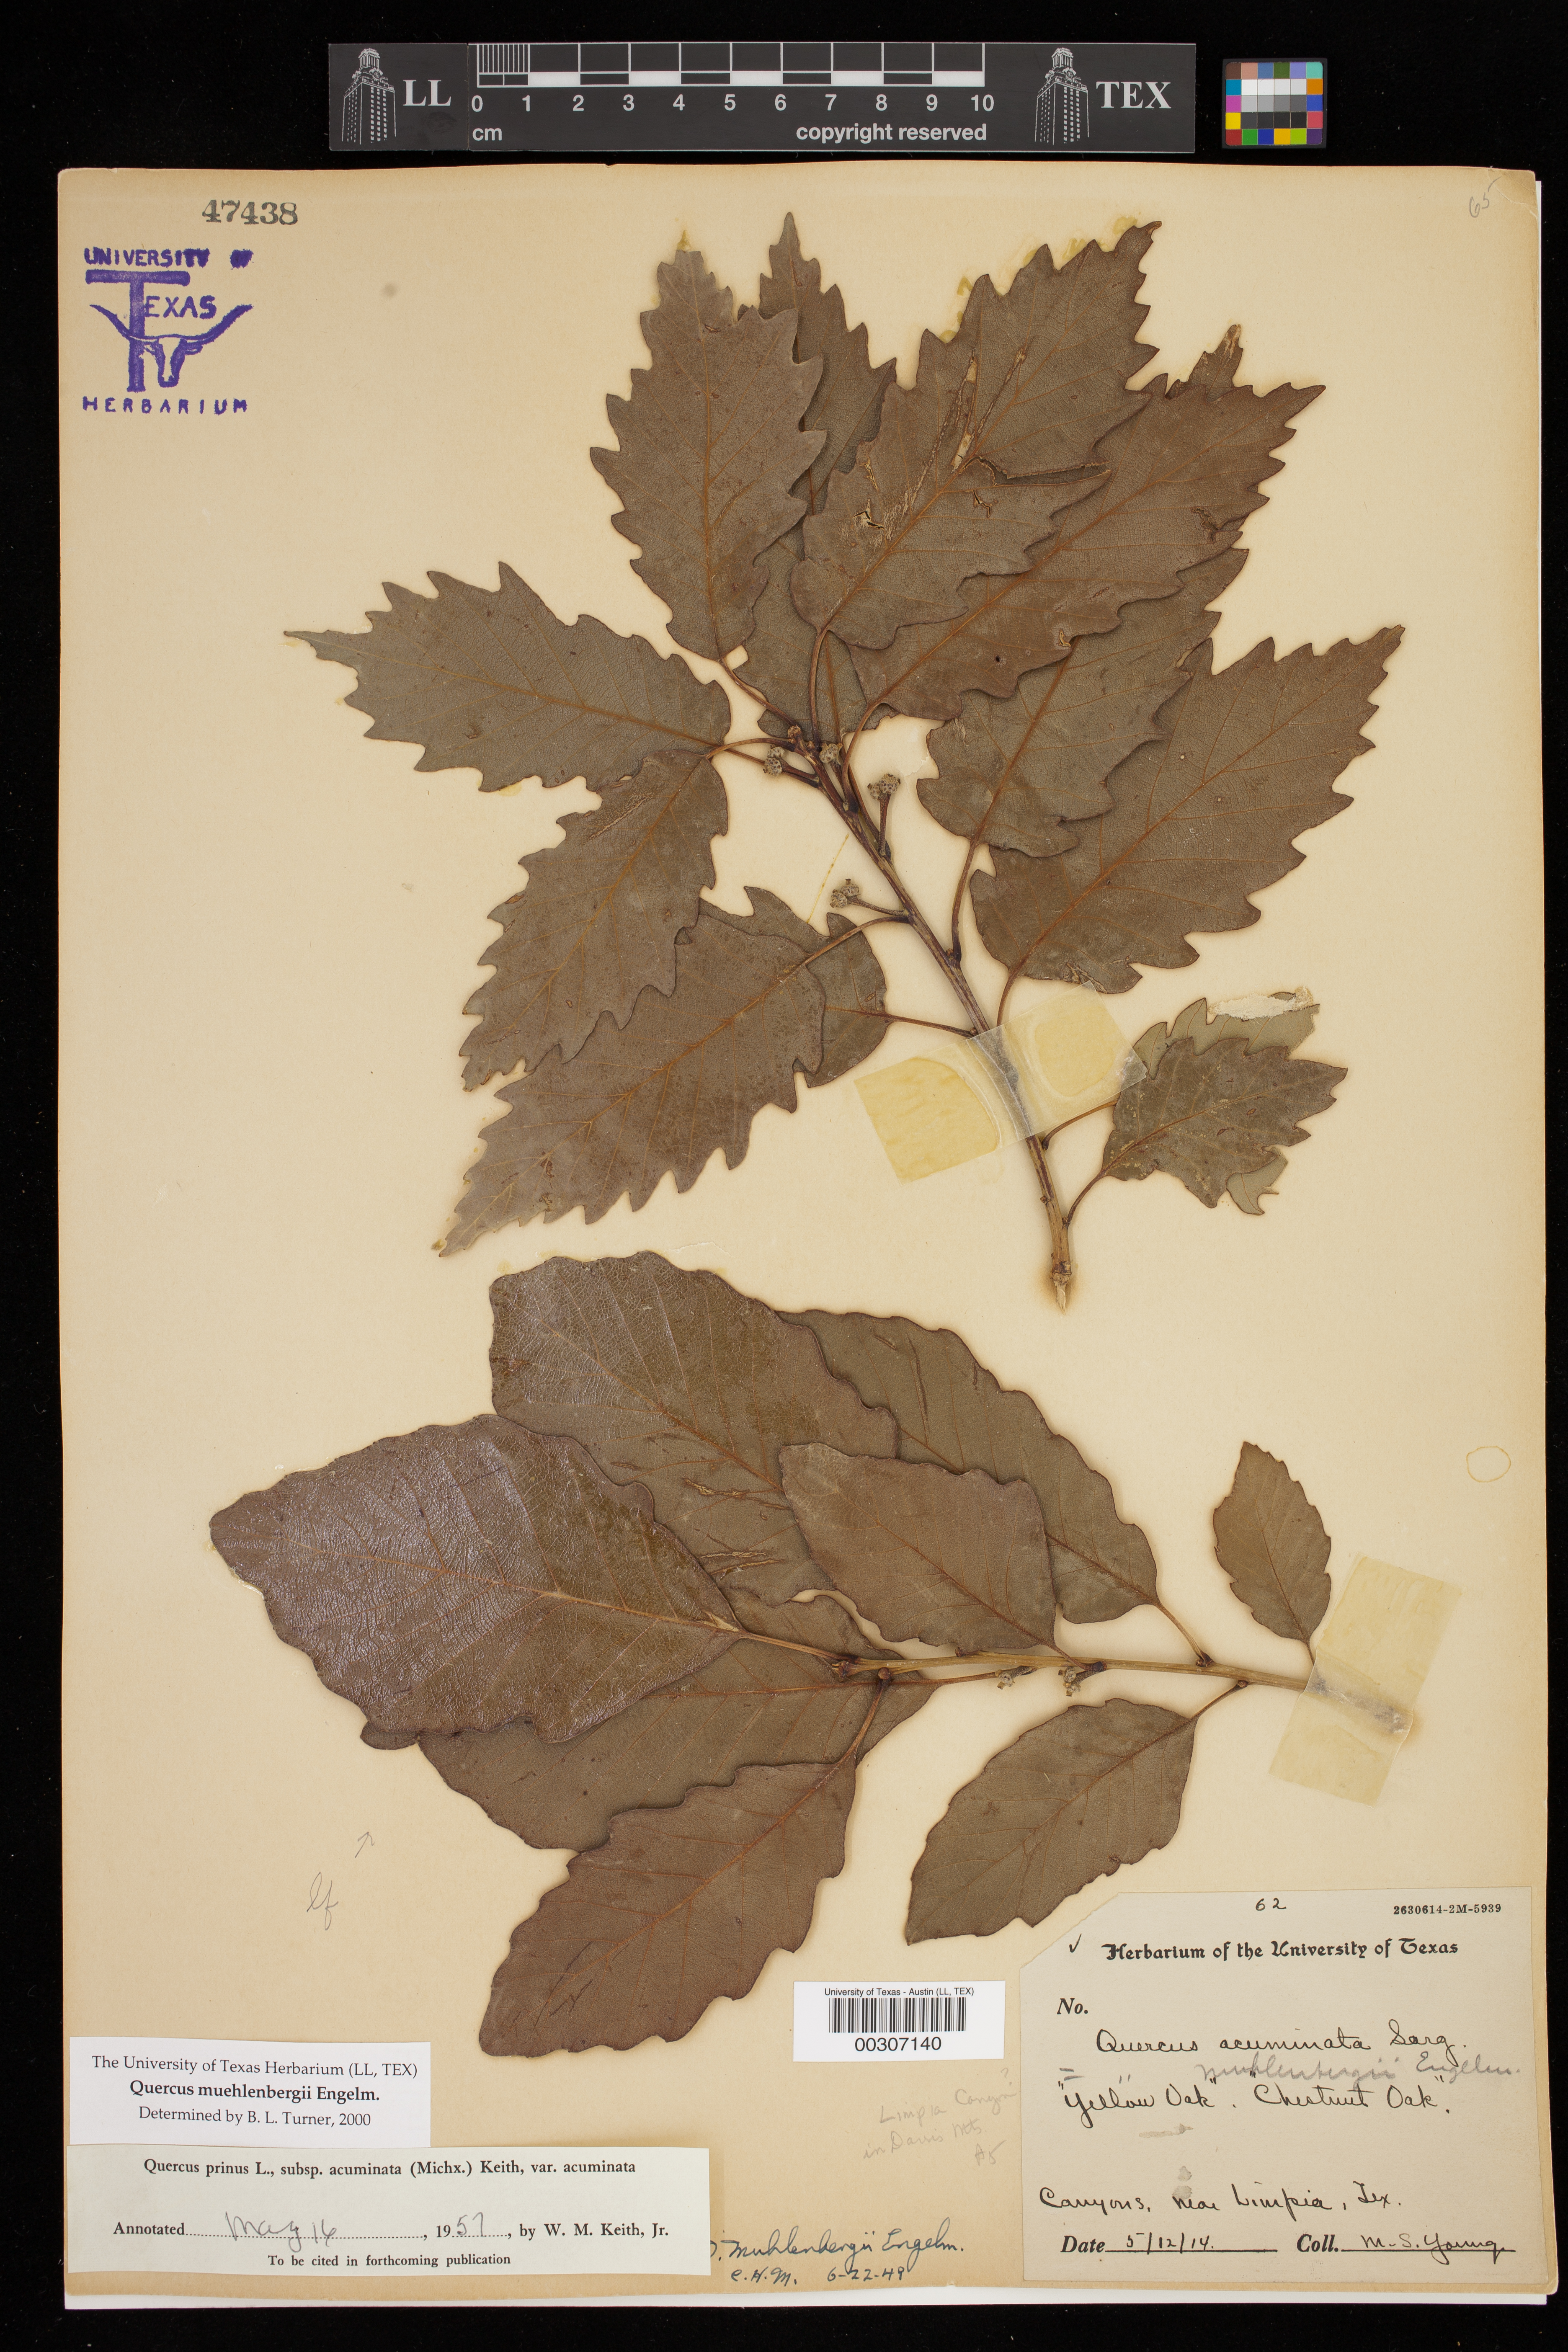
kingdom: Plantae
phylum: Tracheophyta
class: Magnoliopsida
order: Fagales
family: Fagaceae
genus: Quercus
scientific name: Quercus muehlenbergii
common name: Chinkapin oak
